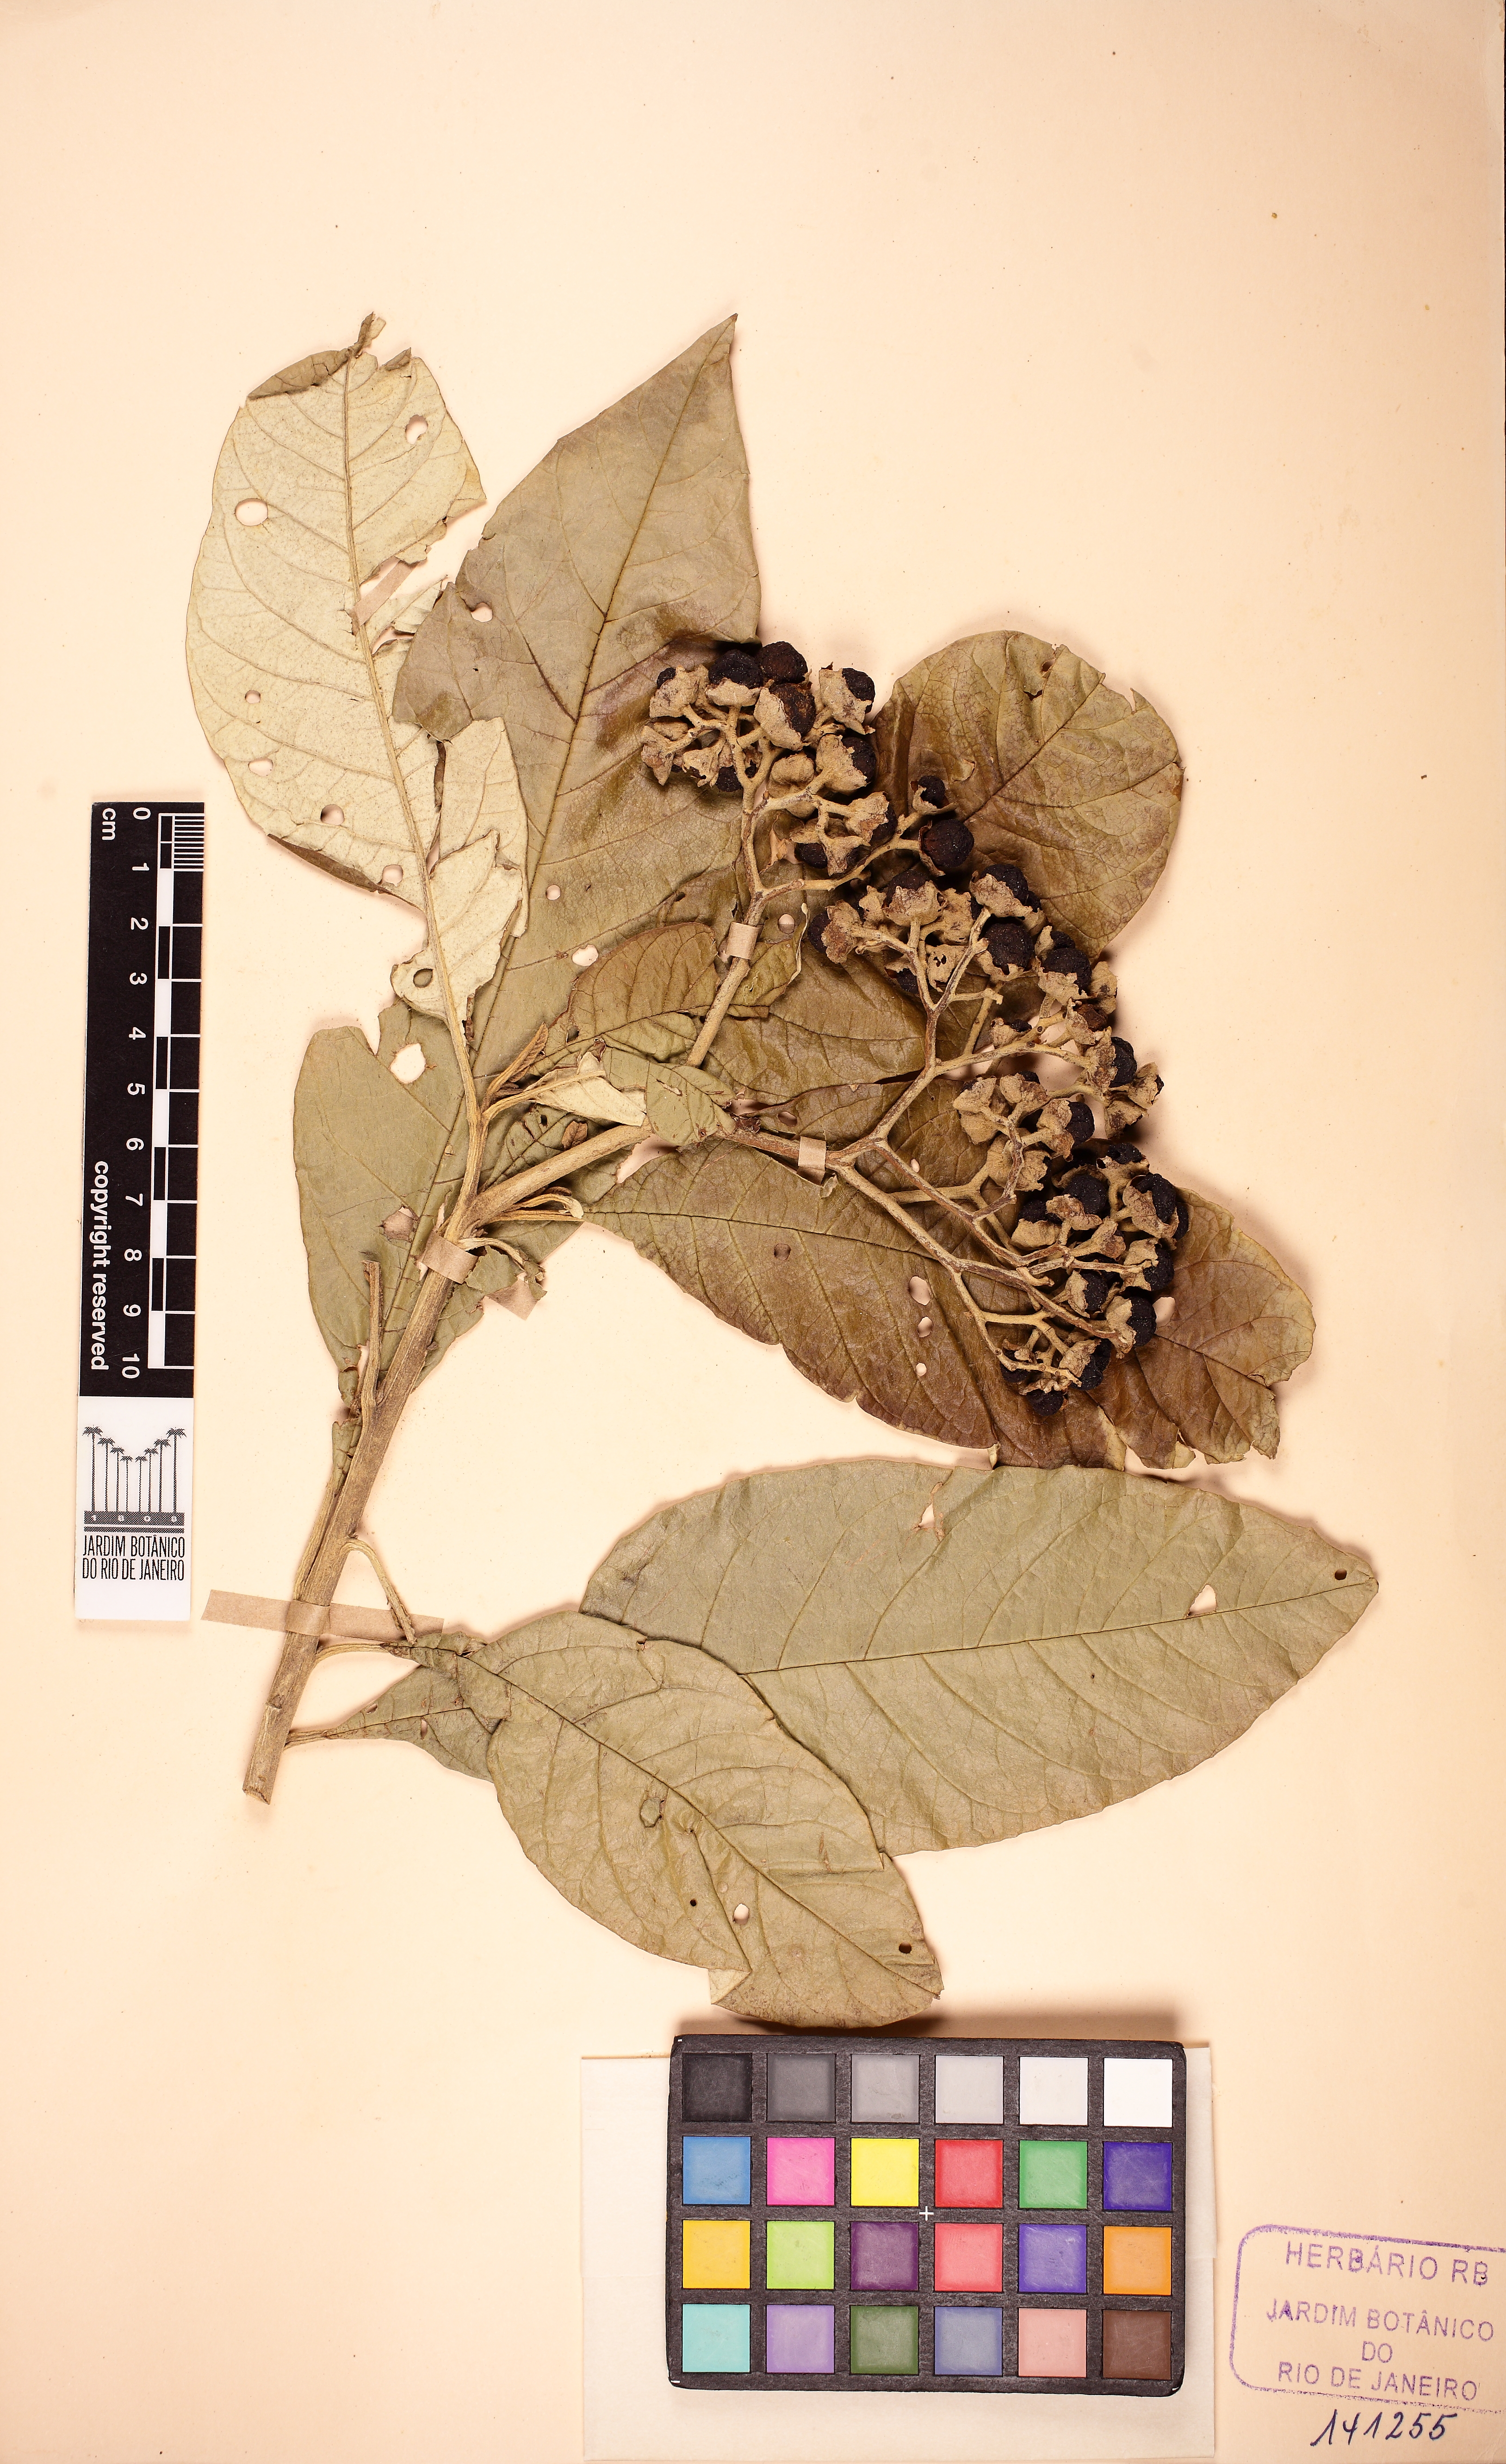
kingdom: Plantae
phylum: Tracheophyta
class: Magnoliopsida
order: Solanales
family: Solanaceae
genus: Solanum
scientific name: Solanum bullatum
